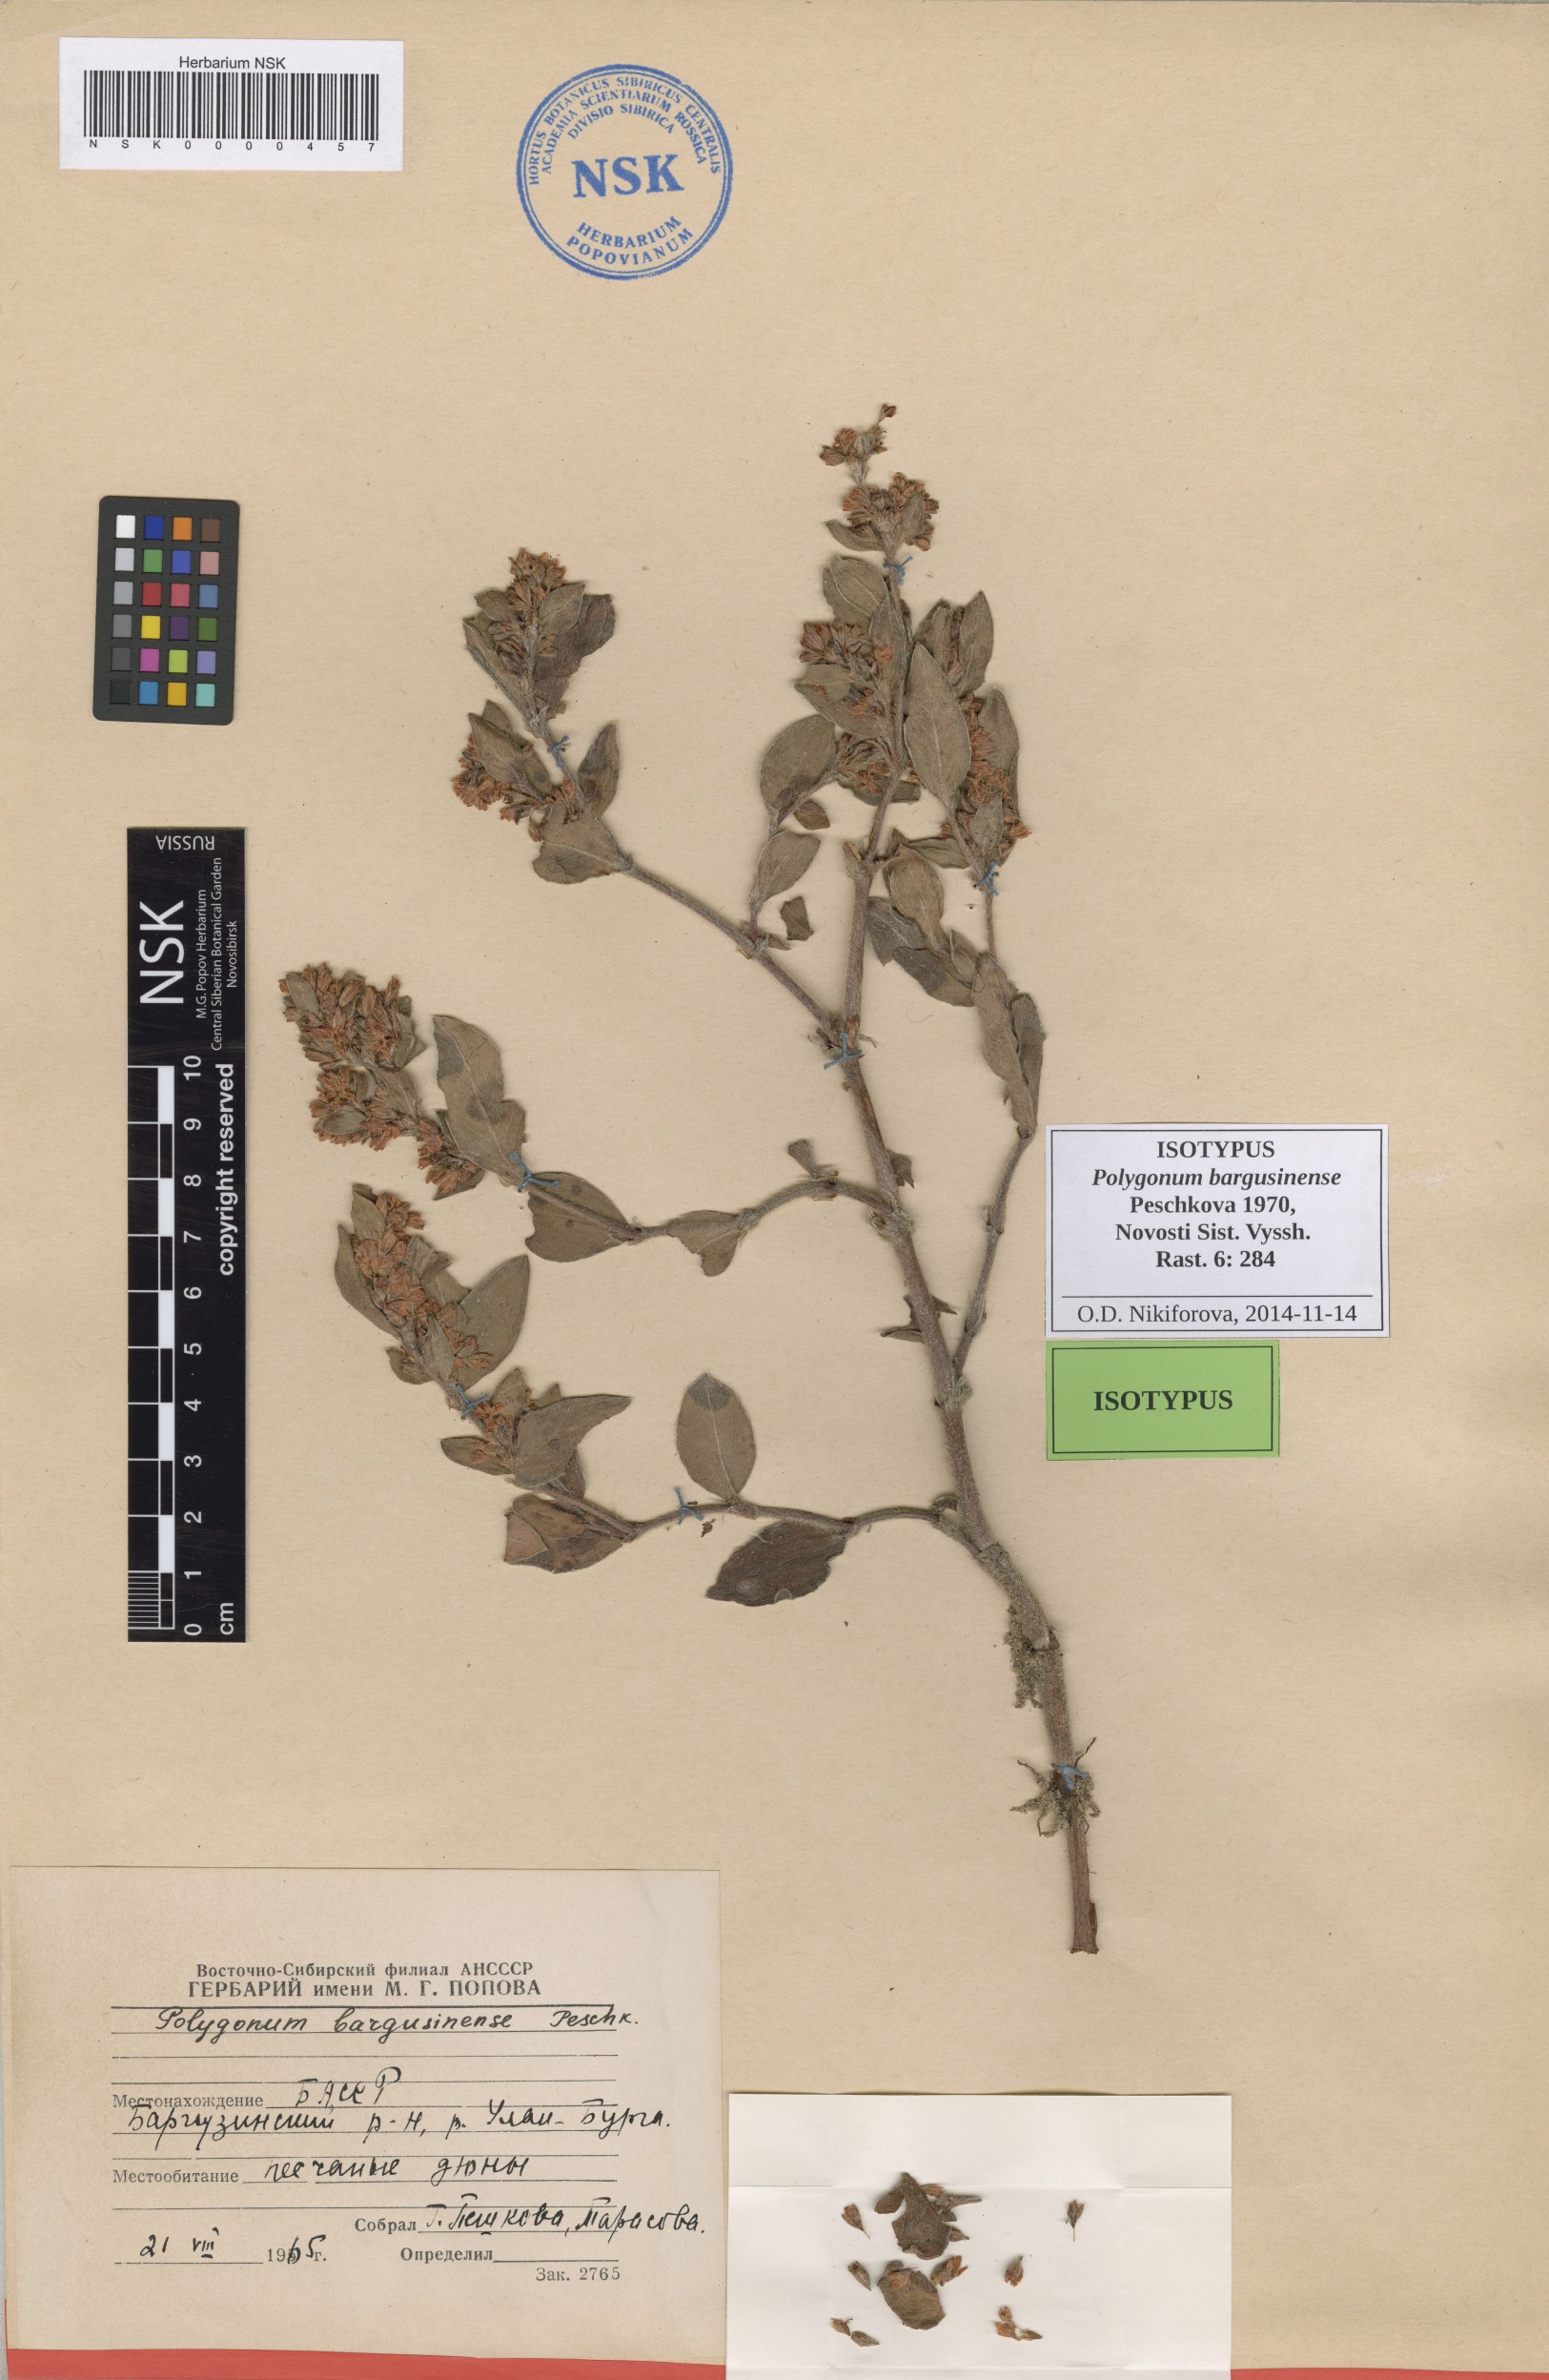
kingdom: Plantae
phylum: Tracheophyta
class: Magnoliopsida
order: Caryophyllales
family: Polygonaceae
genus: Koenigia
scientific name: Koenigia bargusinensis
